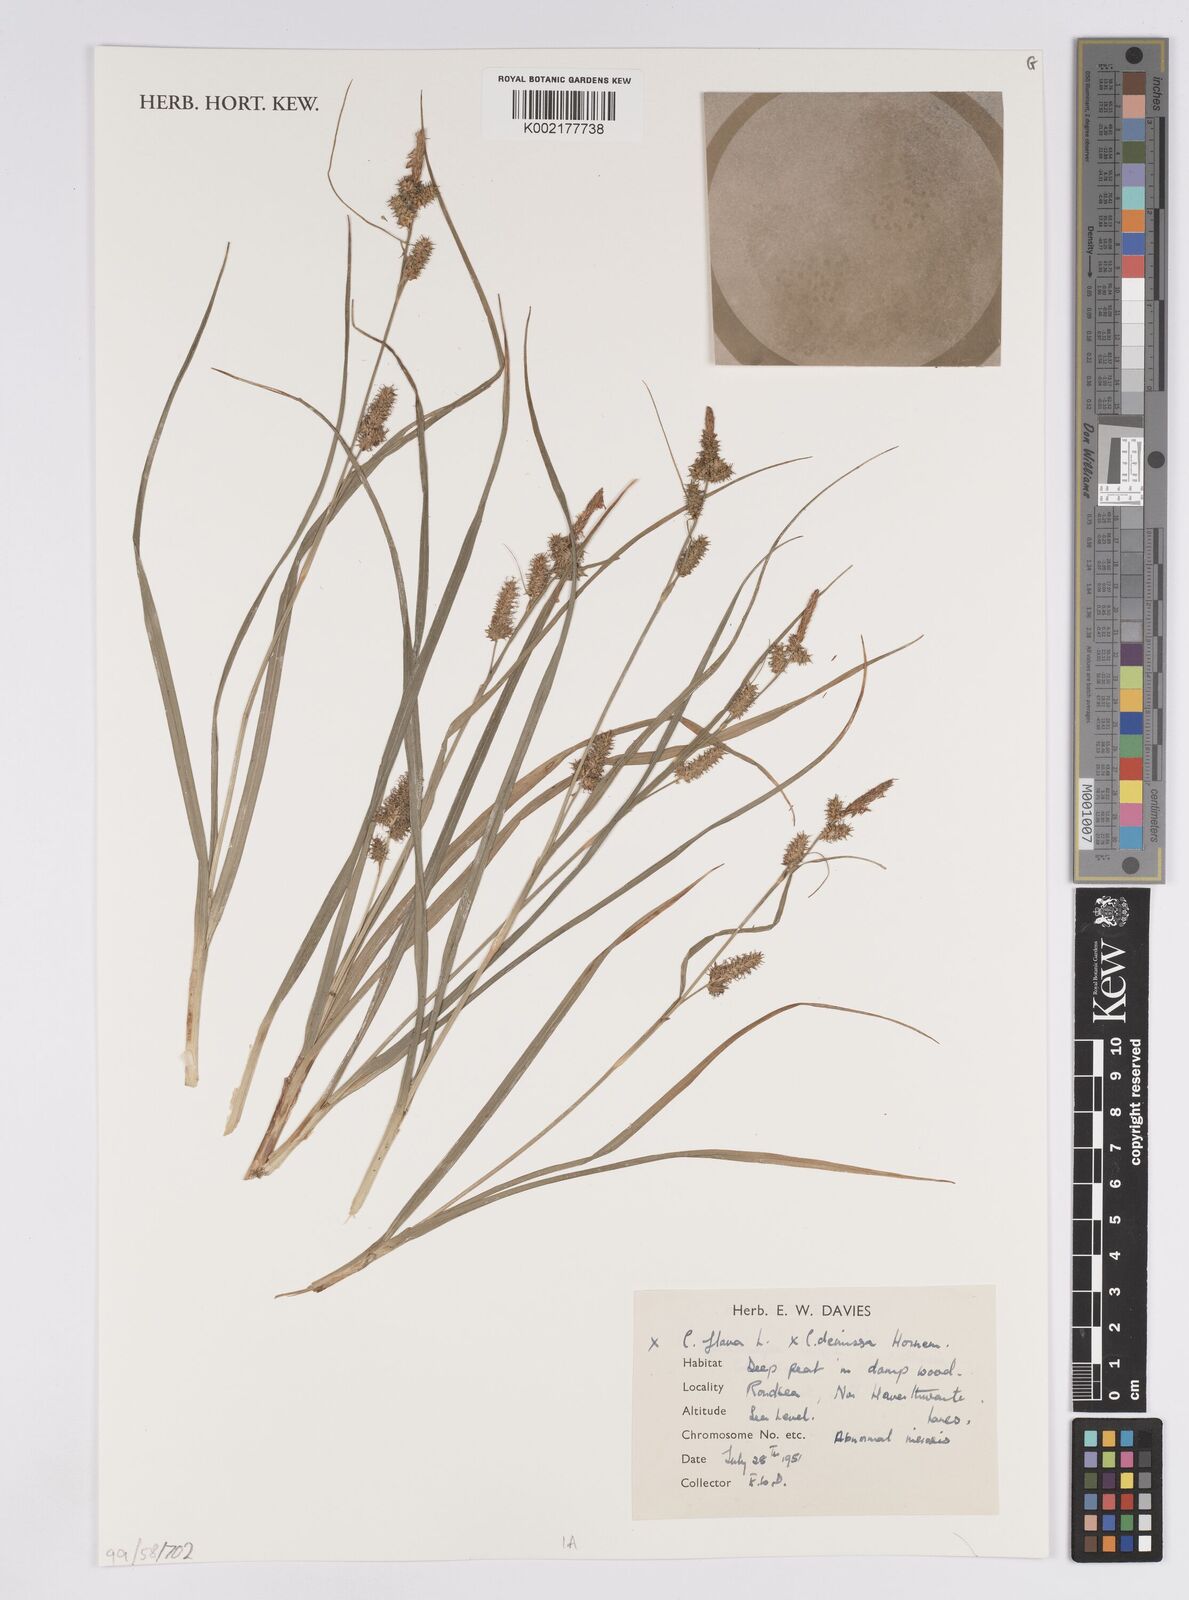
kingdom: Plantae
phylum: Tracheophyta
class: Liliopsida
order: Poales
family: Cyperaceae
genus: Carex
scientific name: Carex flava
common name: Large yellow-sedge
